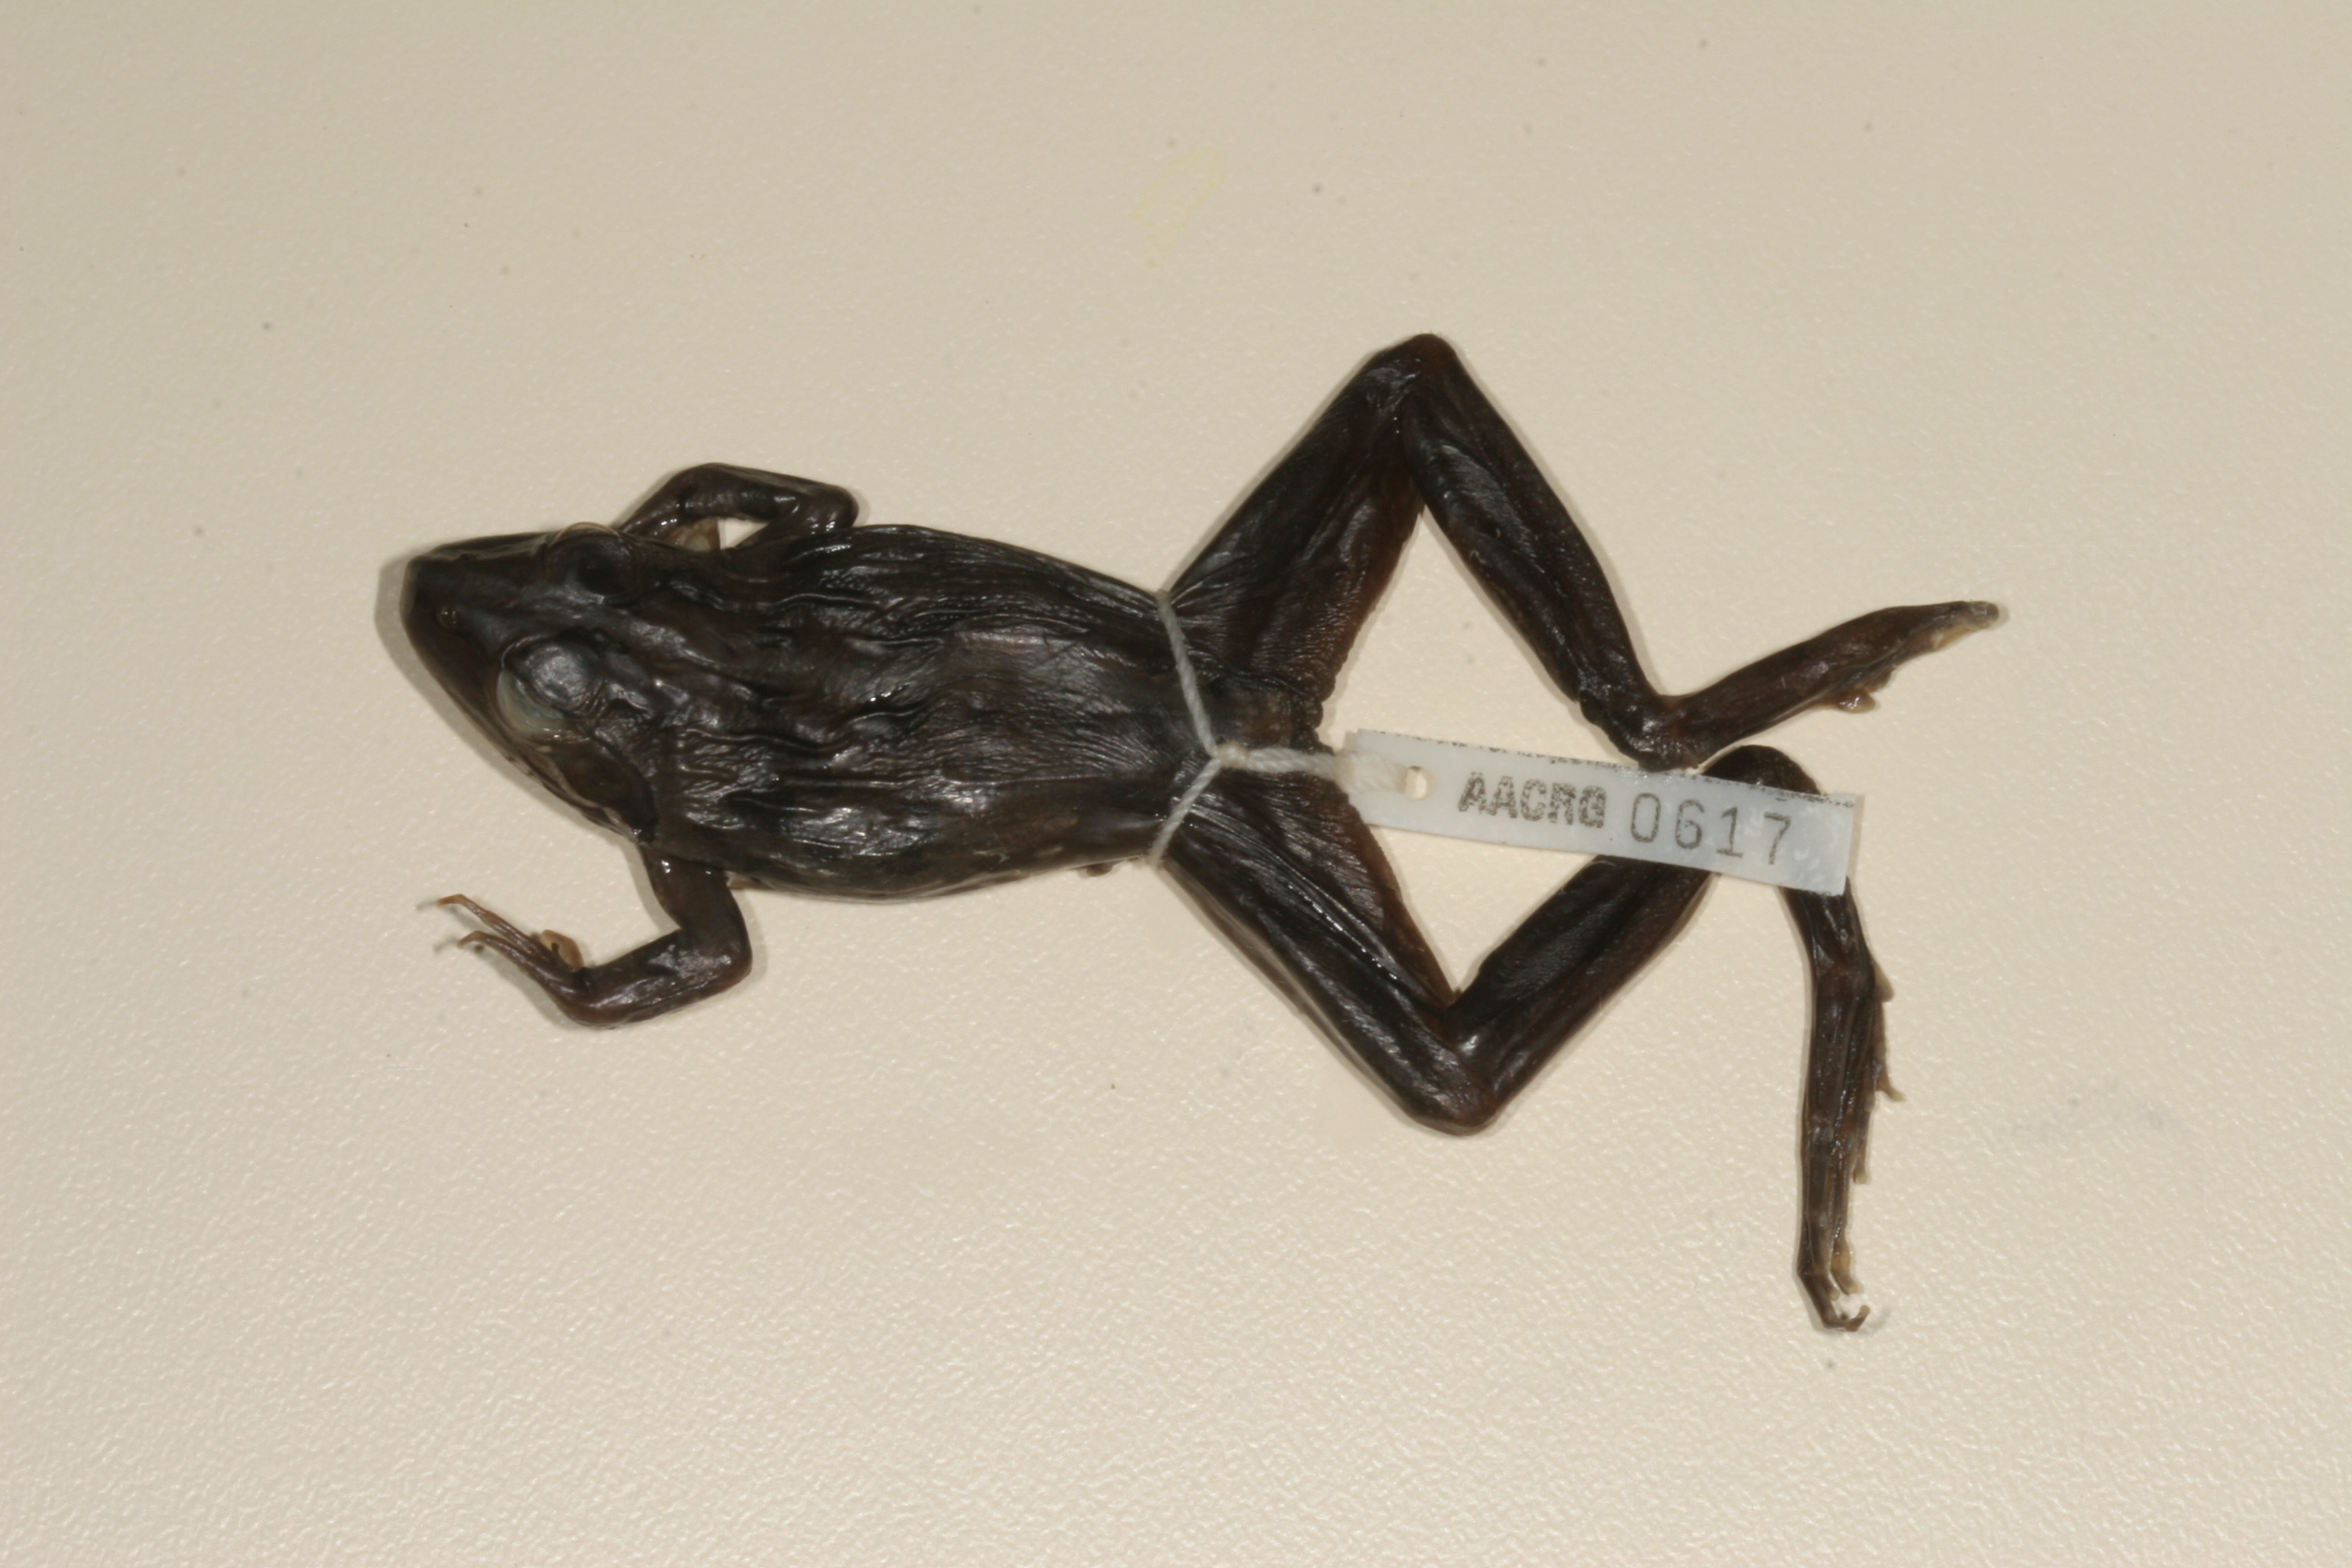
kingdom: Animalia
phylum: Chordata
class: Amphibia
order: Anura
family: Pyxicephalidae
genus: Amietia
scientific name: Amietia angolensis
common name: Dusky-throated frog
